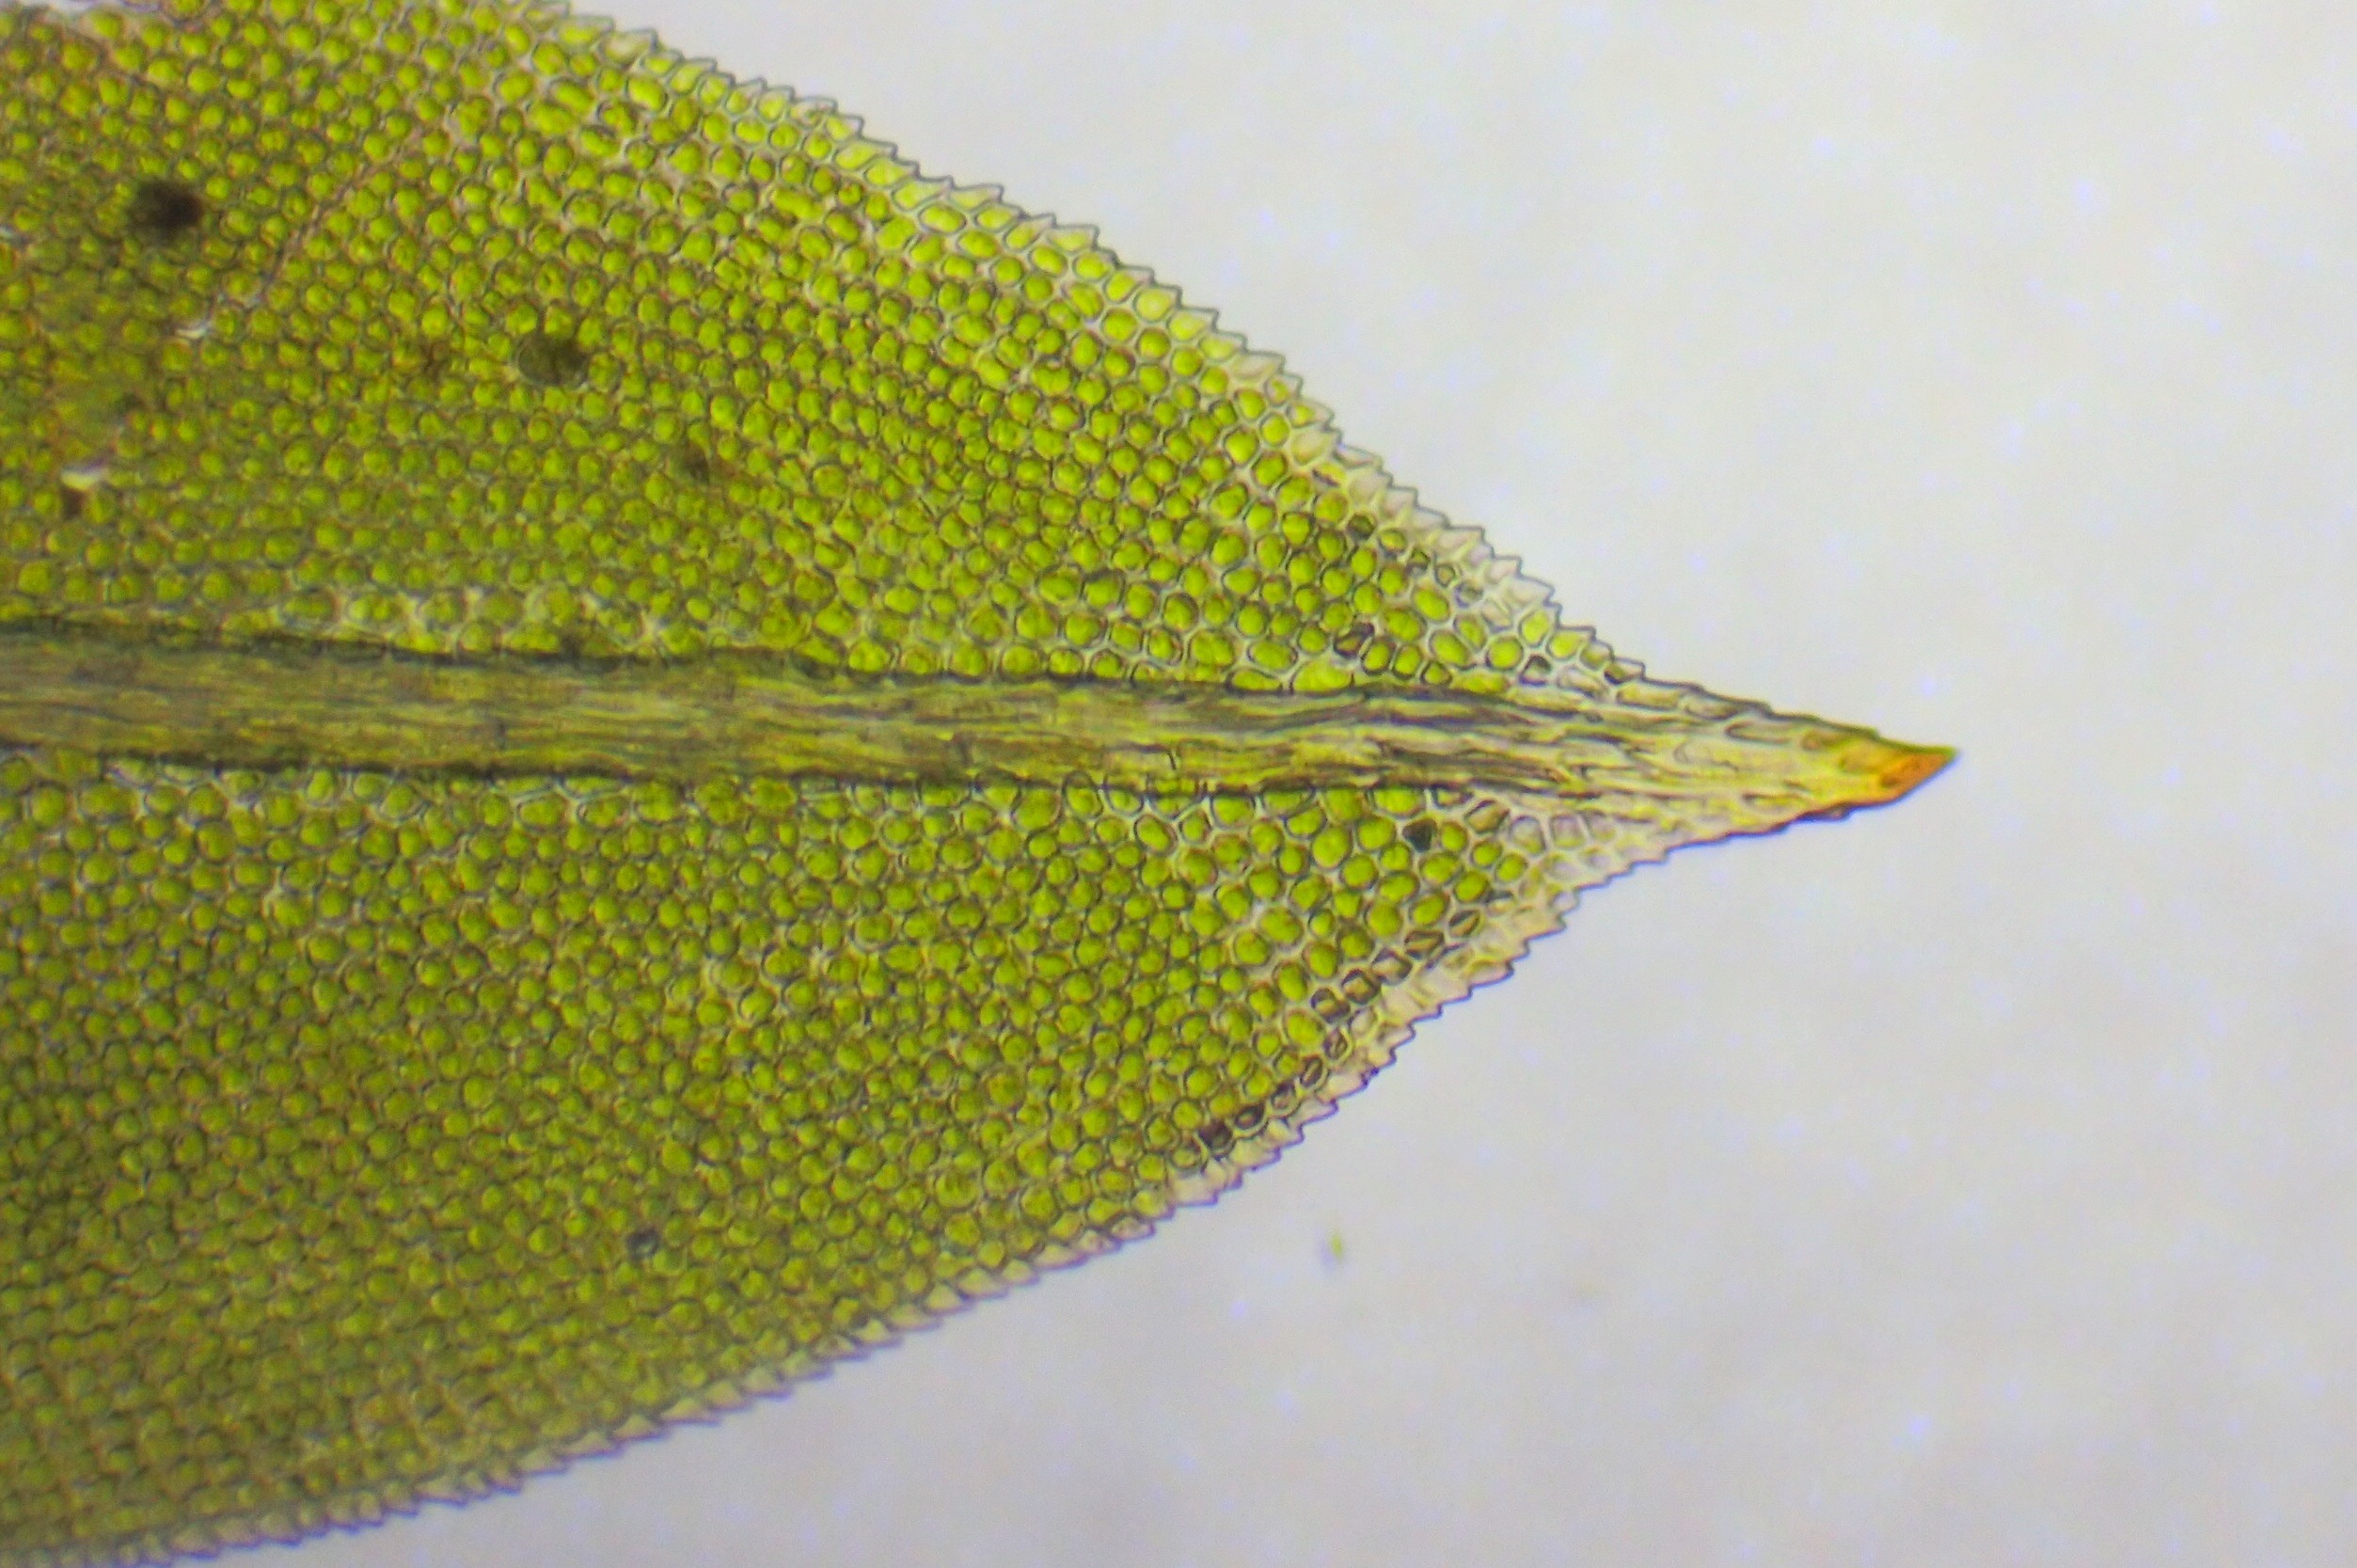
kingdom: Plantae
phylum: Bryophyta
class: Bryopsida
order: Dicranales
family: Fissidentaceae
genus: Fissidens
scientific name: Fissidens taxifolius
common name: Taksbladet rademos
